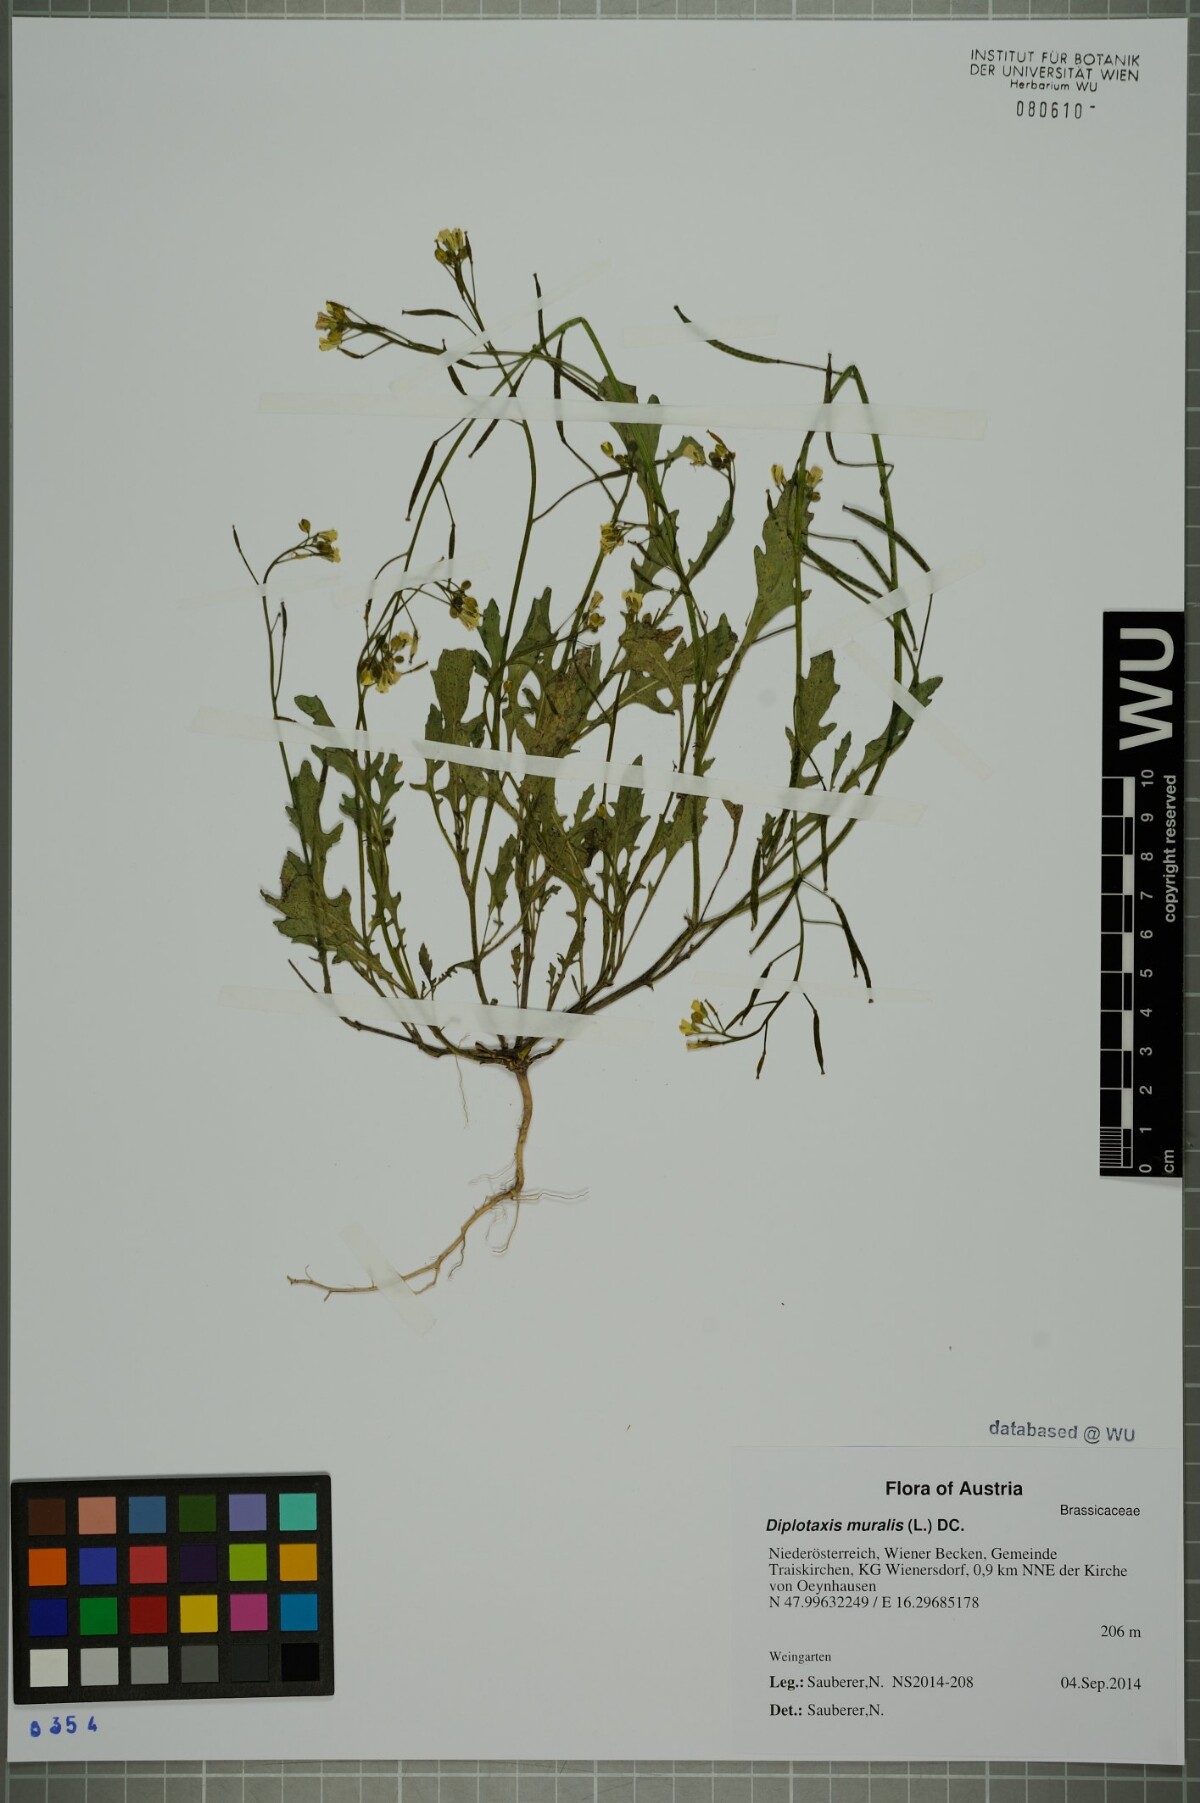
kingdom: Plantae
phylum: Tracheophyta
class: Magnoliopsida
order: Brassicales
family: Brassicaceae
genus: Diplotaxis
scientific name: Diplotaxis muralis
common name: Annual wall-rocket
